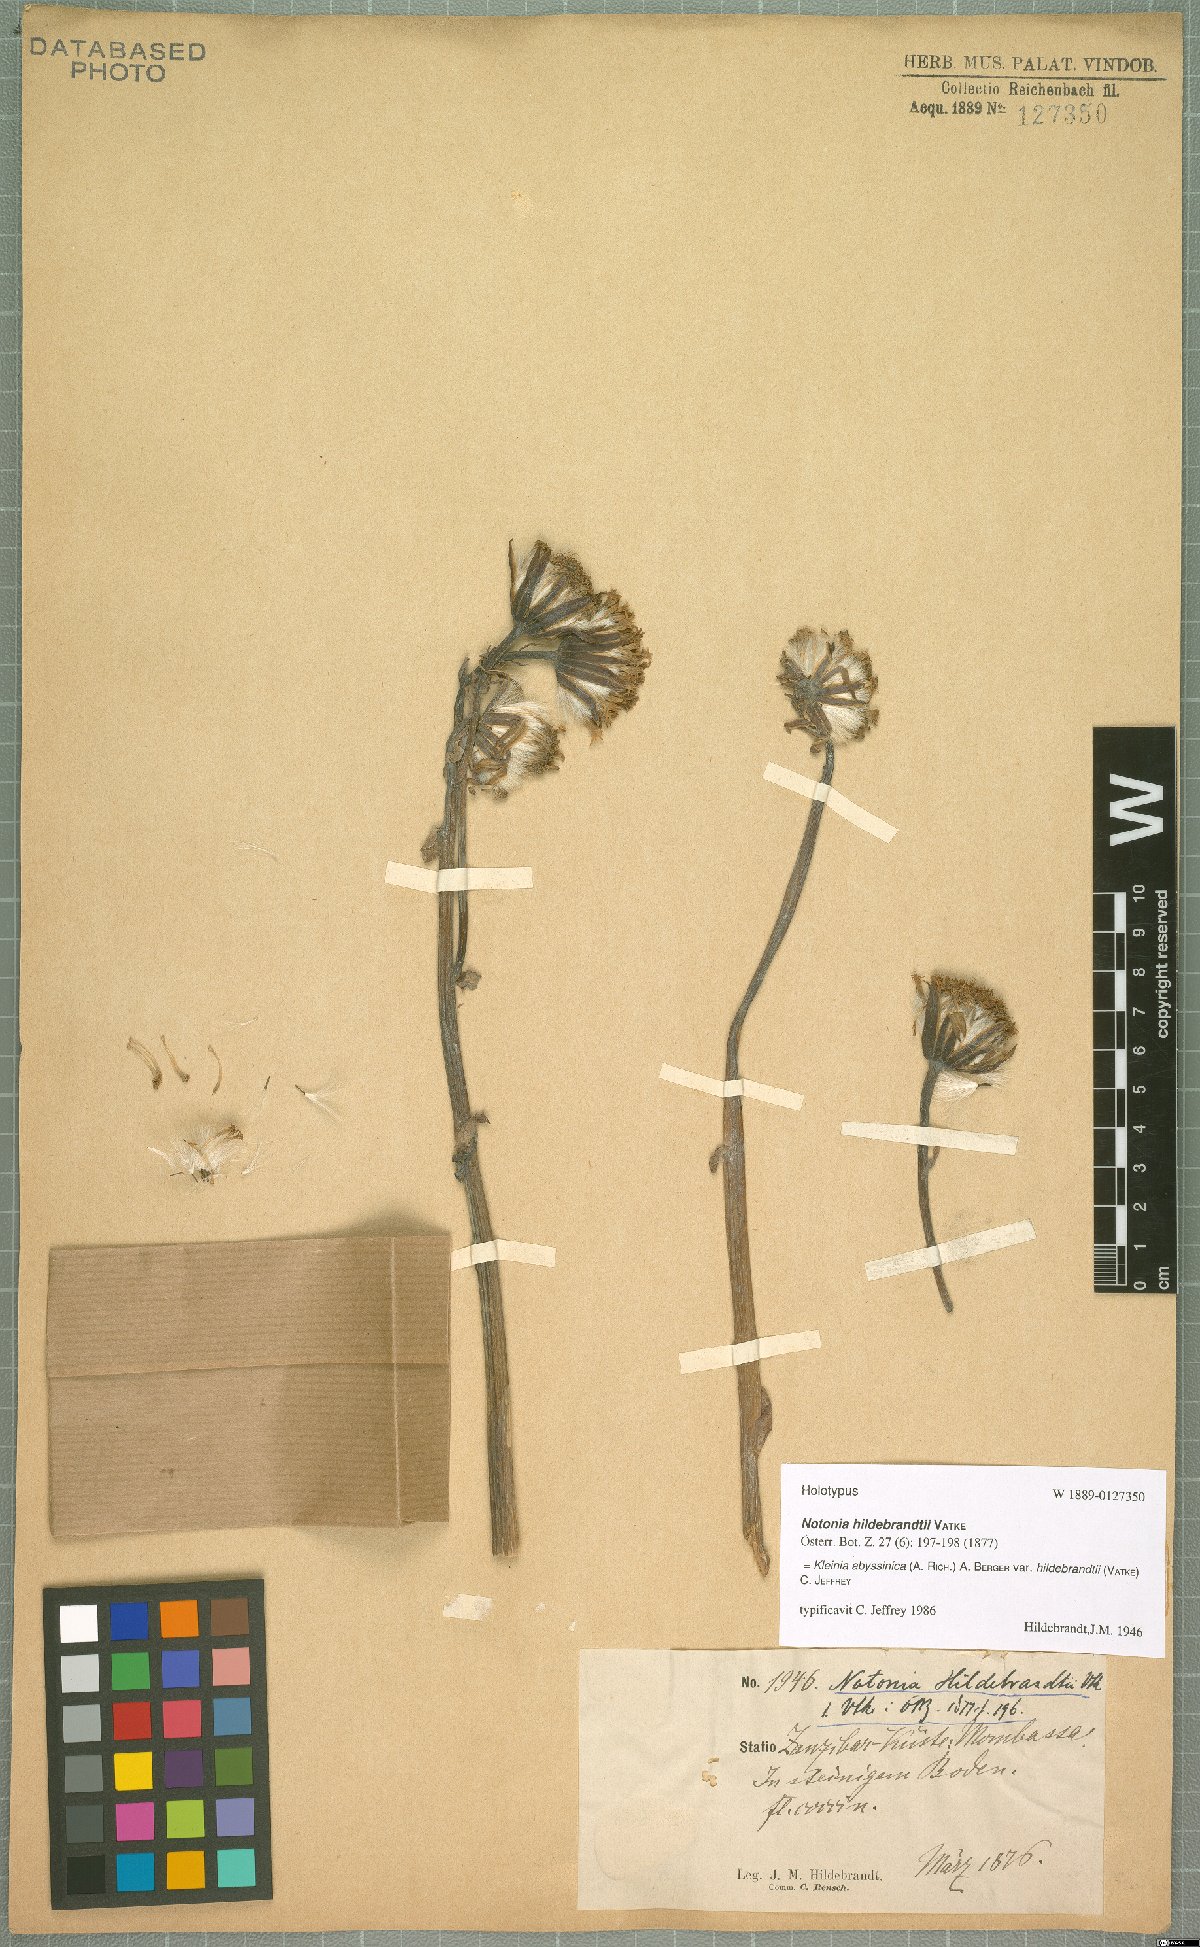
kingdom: Plantae
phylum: Tracheophyta
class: Magnoliopsida
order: Asterales
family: Asteraceae
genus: Kleinia
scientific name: Kleinia abyssinica
